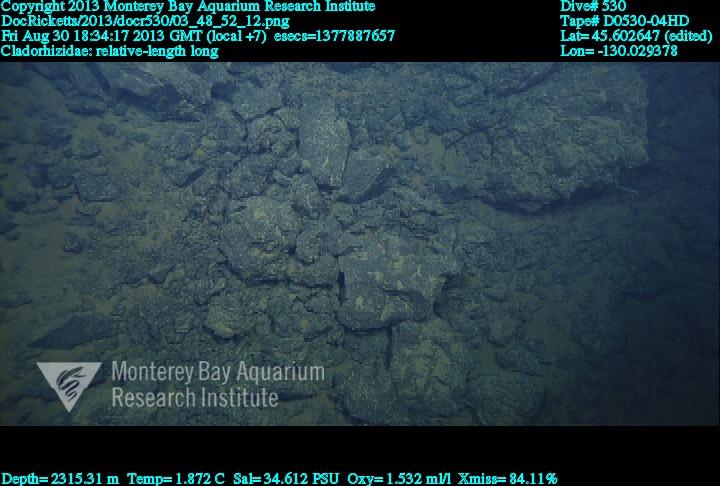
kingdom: Animalia
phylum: Porifera
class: Demospongiae
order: Poecilosclerida
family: Cladorhizidae
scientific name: Cladorhizidae
